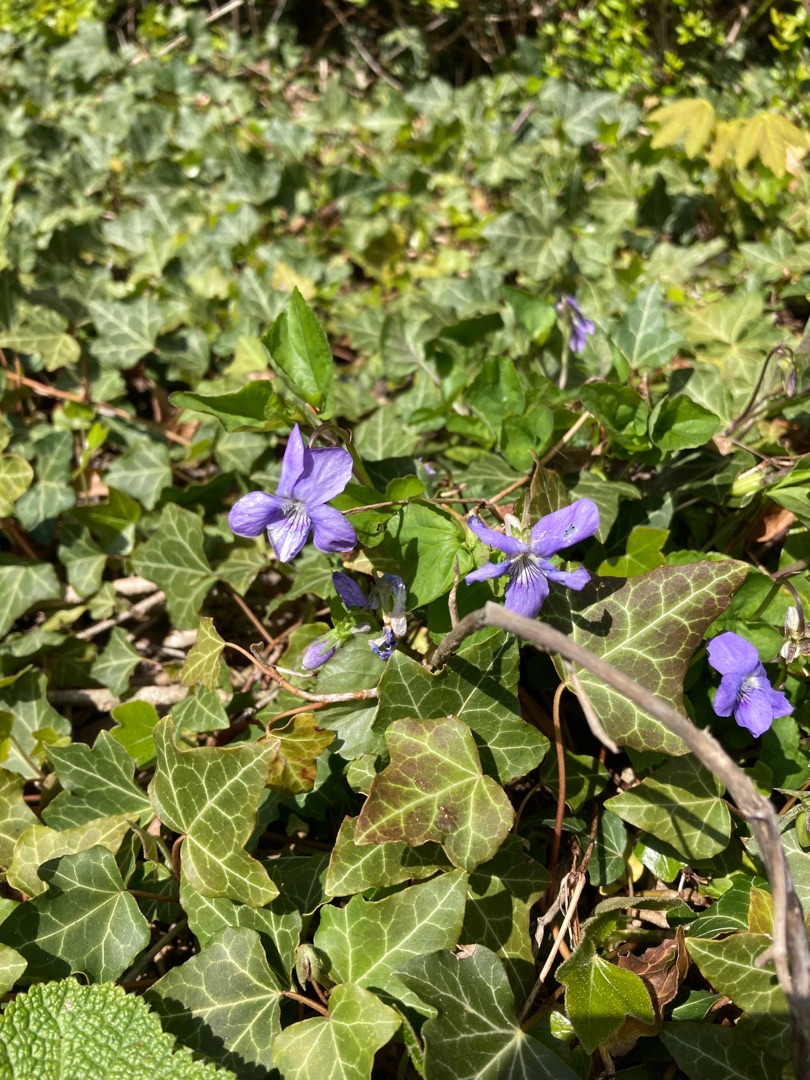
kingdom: Plantae
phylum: Tracheophyta
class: Magnoliopsida
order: Malpighiales
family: Violaceae
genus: Viola
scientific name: Viola riviniana
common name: Krat-viol
